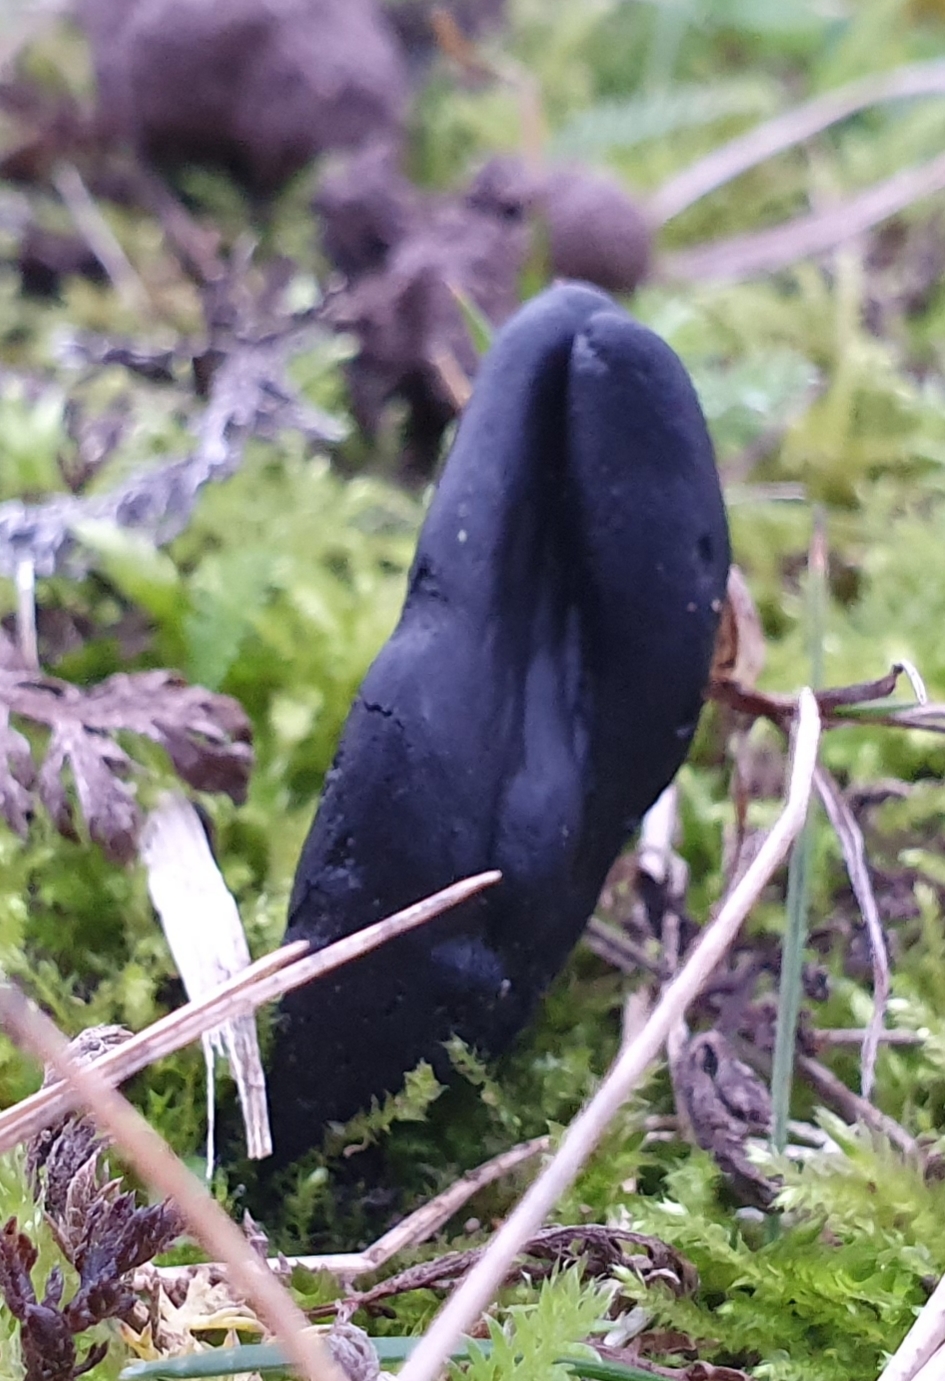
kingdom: Fungi
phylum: Ascomycota
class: Geoglossomycetes
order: Geoglossales
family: Geoglossaceae
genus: Geoglossum
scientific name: Geoglossum cookeianum
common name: bred jordtunge
